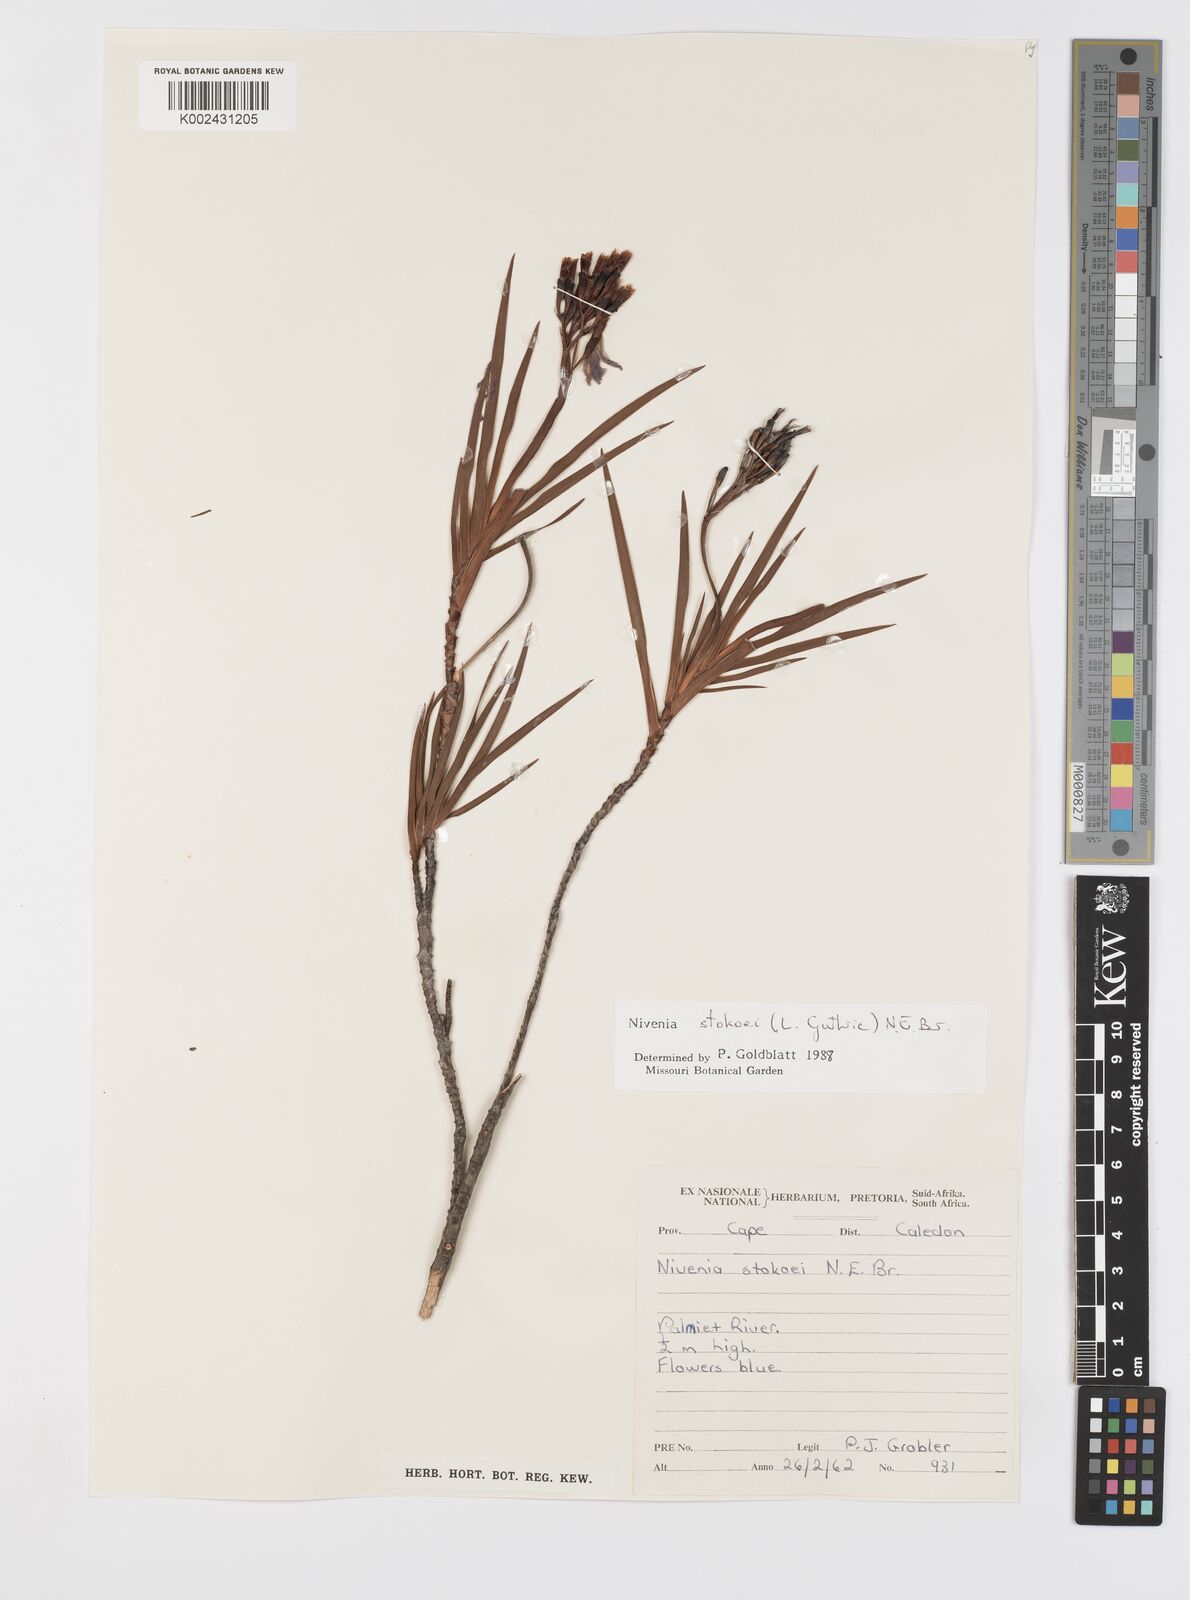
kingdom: Plantae
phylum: Tracheophyta
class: Liliopsida
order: Asparagales
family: Iridaceae
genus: Nivenia
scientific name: Nivenia stokoei
